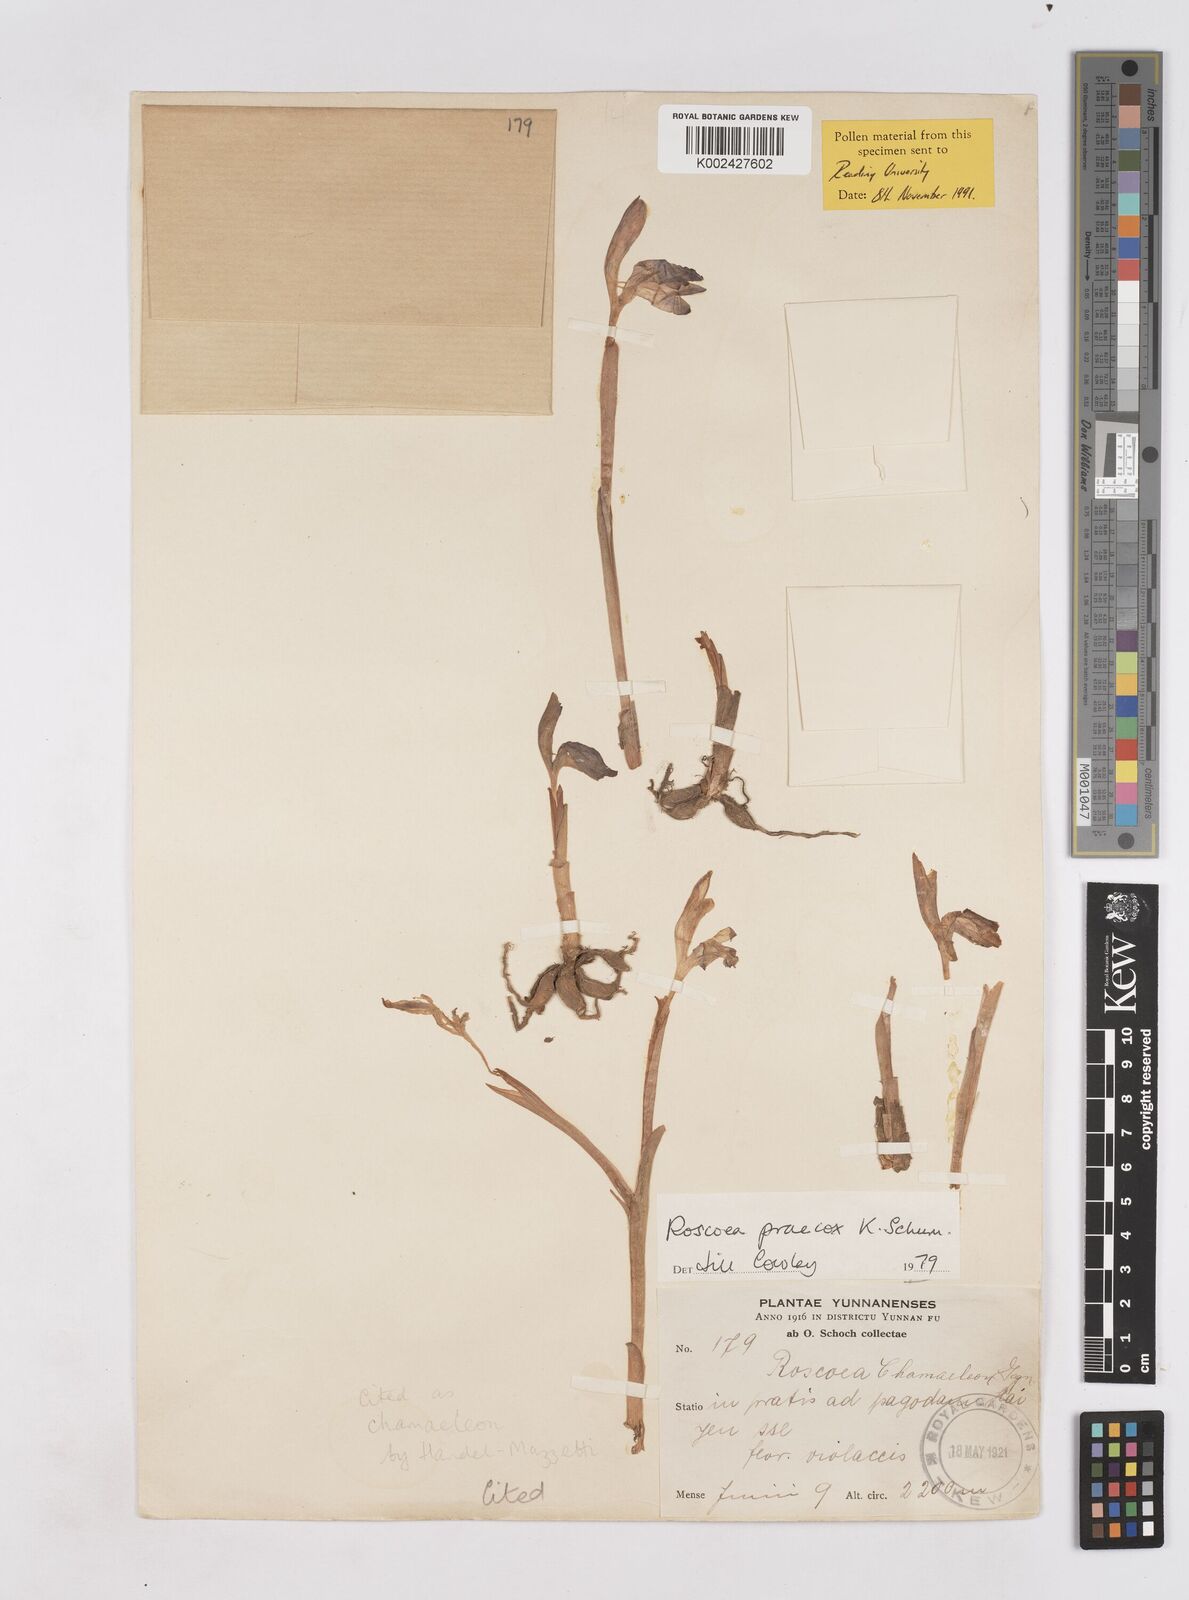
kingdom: Plantae
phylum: Tracheophyta
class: Liliopsida
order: Zingiberales
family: Zingiberaceae
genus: Roscoea
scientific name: Roscoea praecox
